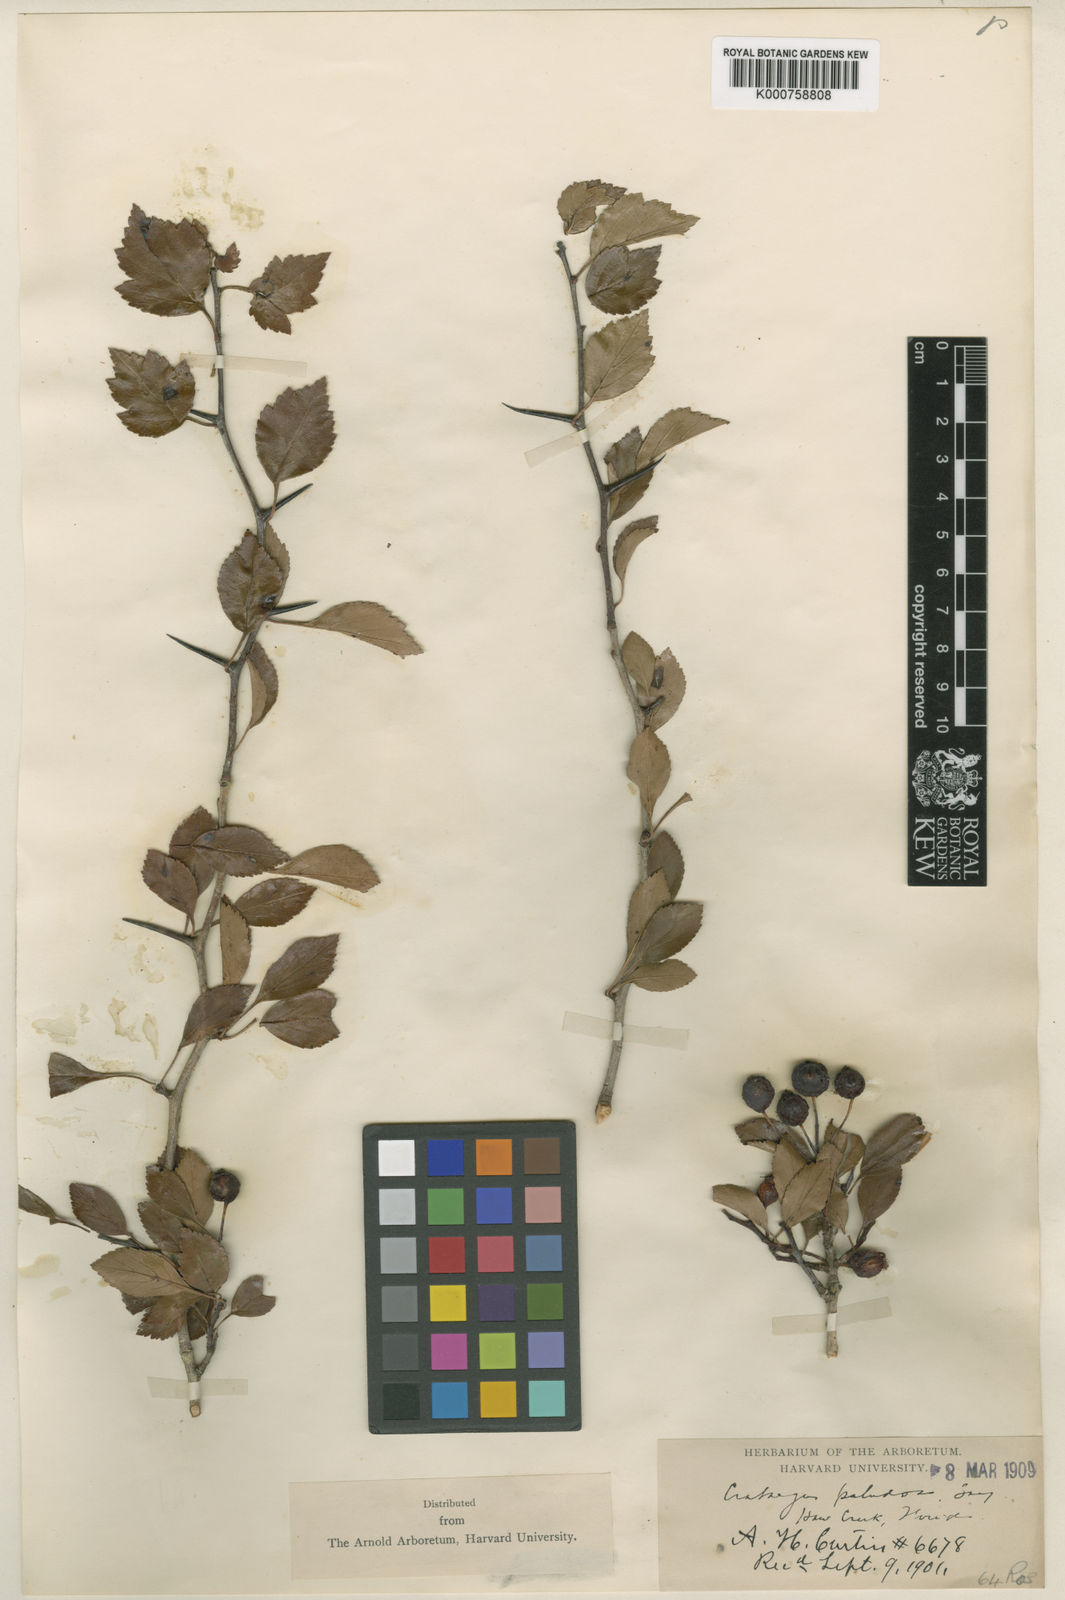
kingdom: Plantae
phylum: Tracheophyta
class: Magnoliopsida
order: Rosales
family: Rosaceae
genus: Crataegus
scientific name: Crataegus viridis
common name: Southernthorn
